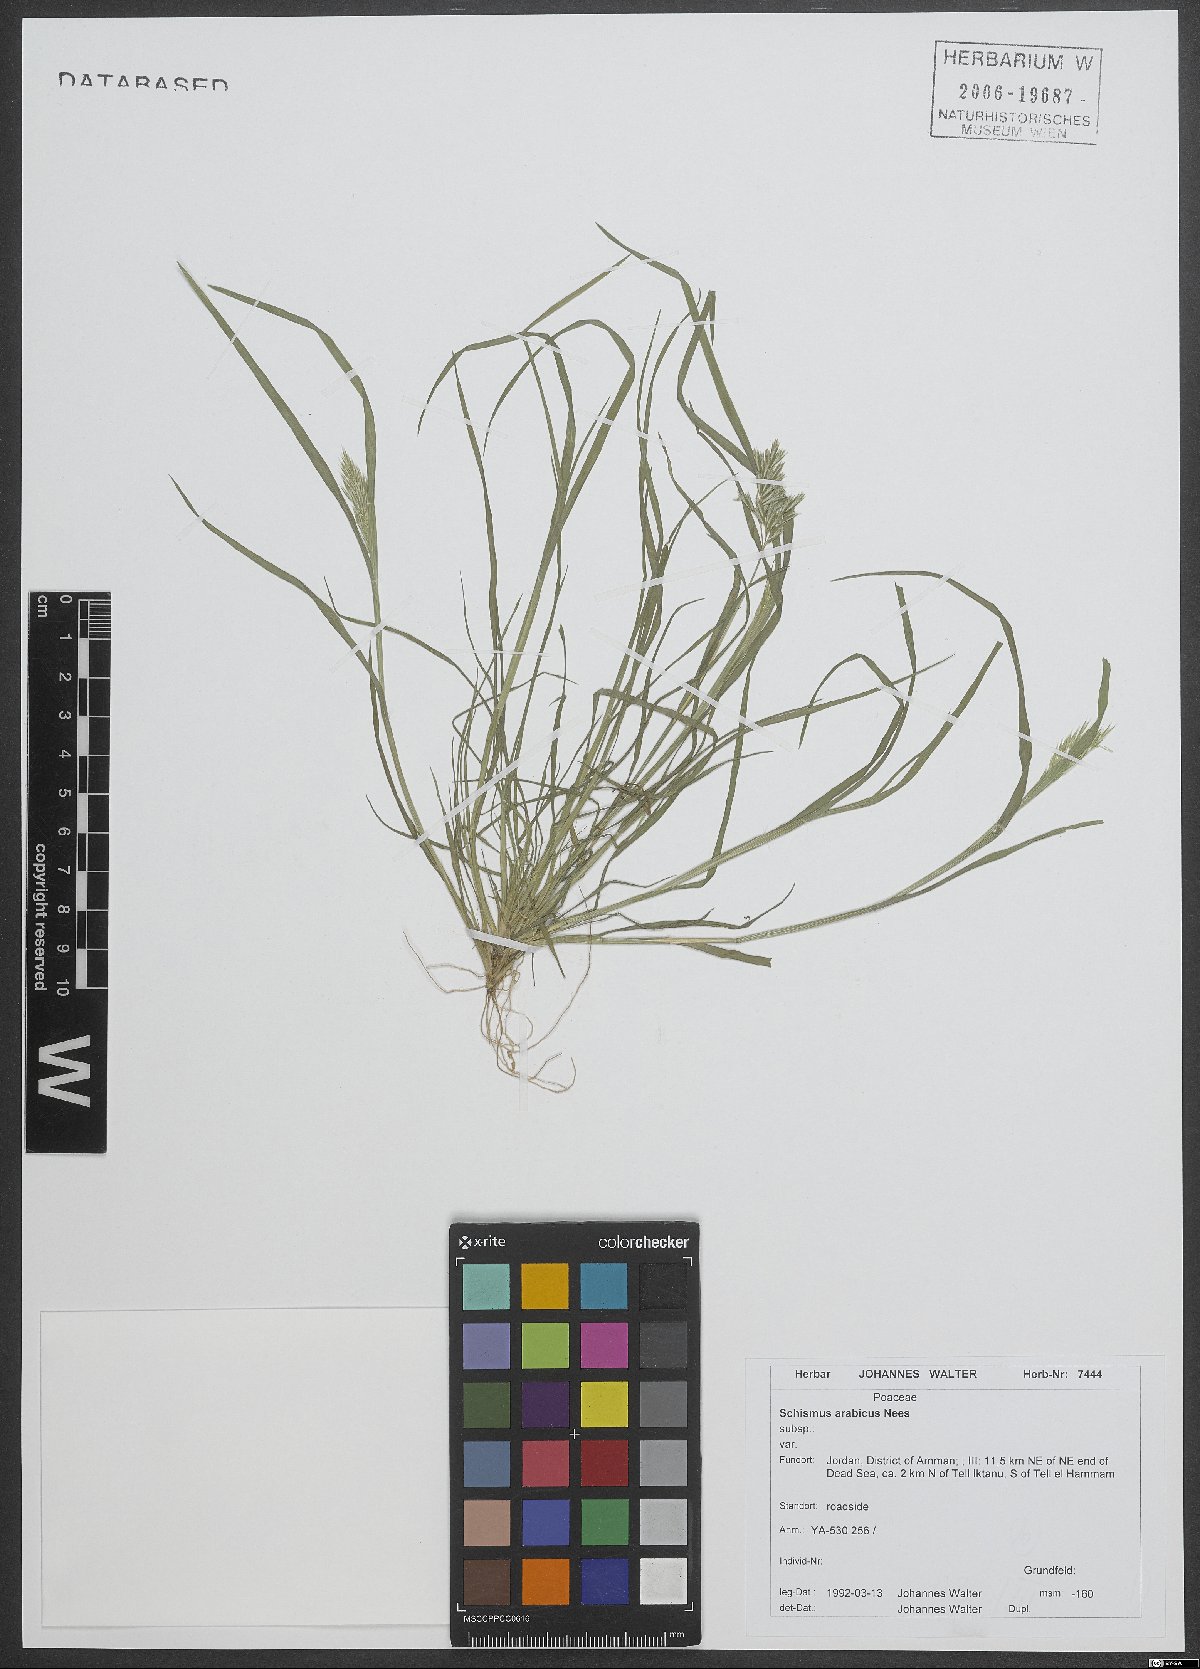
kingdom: Plantae
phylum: Tracheophyta
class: Liliopsida
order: Poales
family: Poaceae
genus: Schismus
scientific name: Schismus arabicus
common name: Arabian schismus
